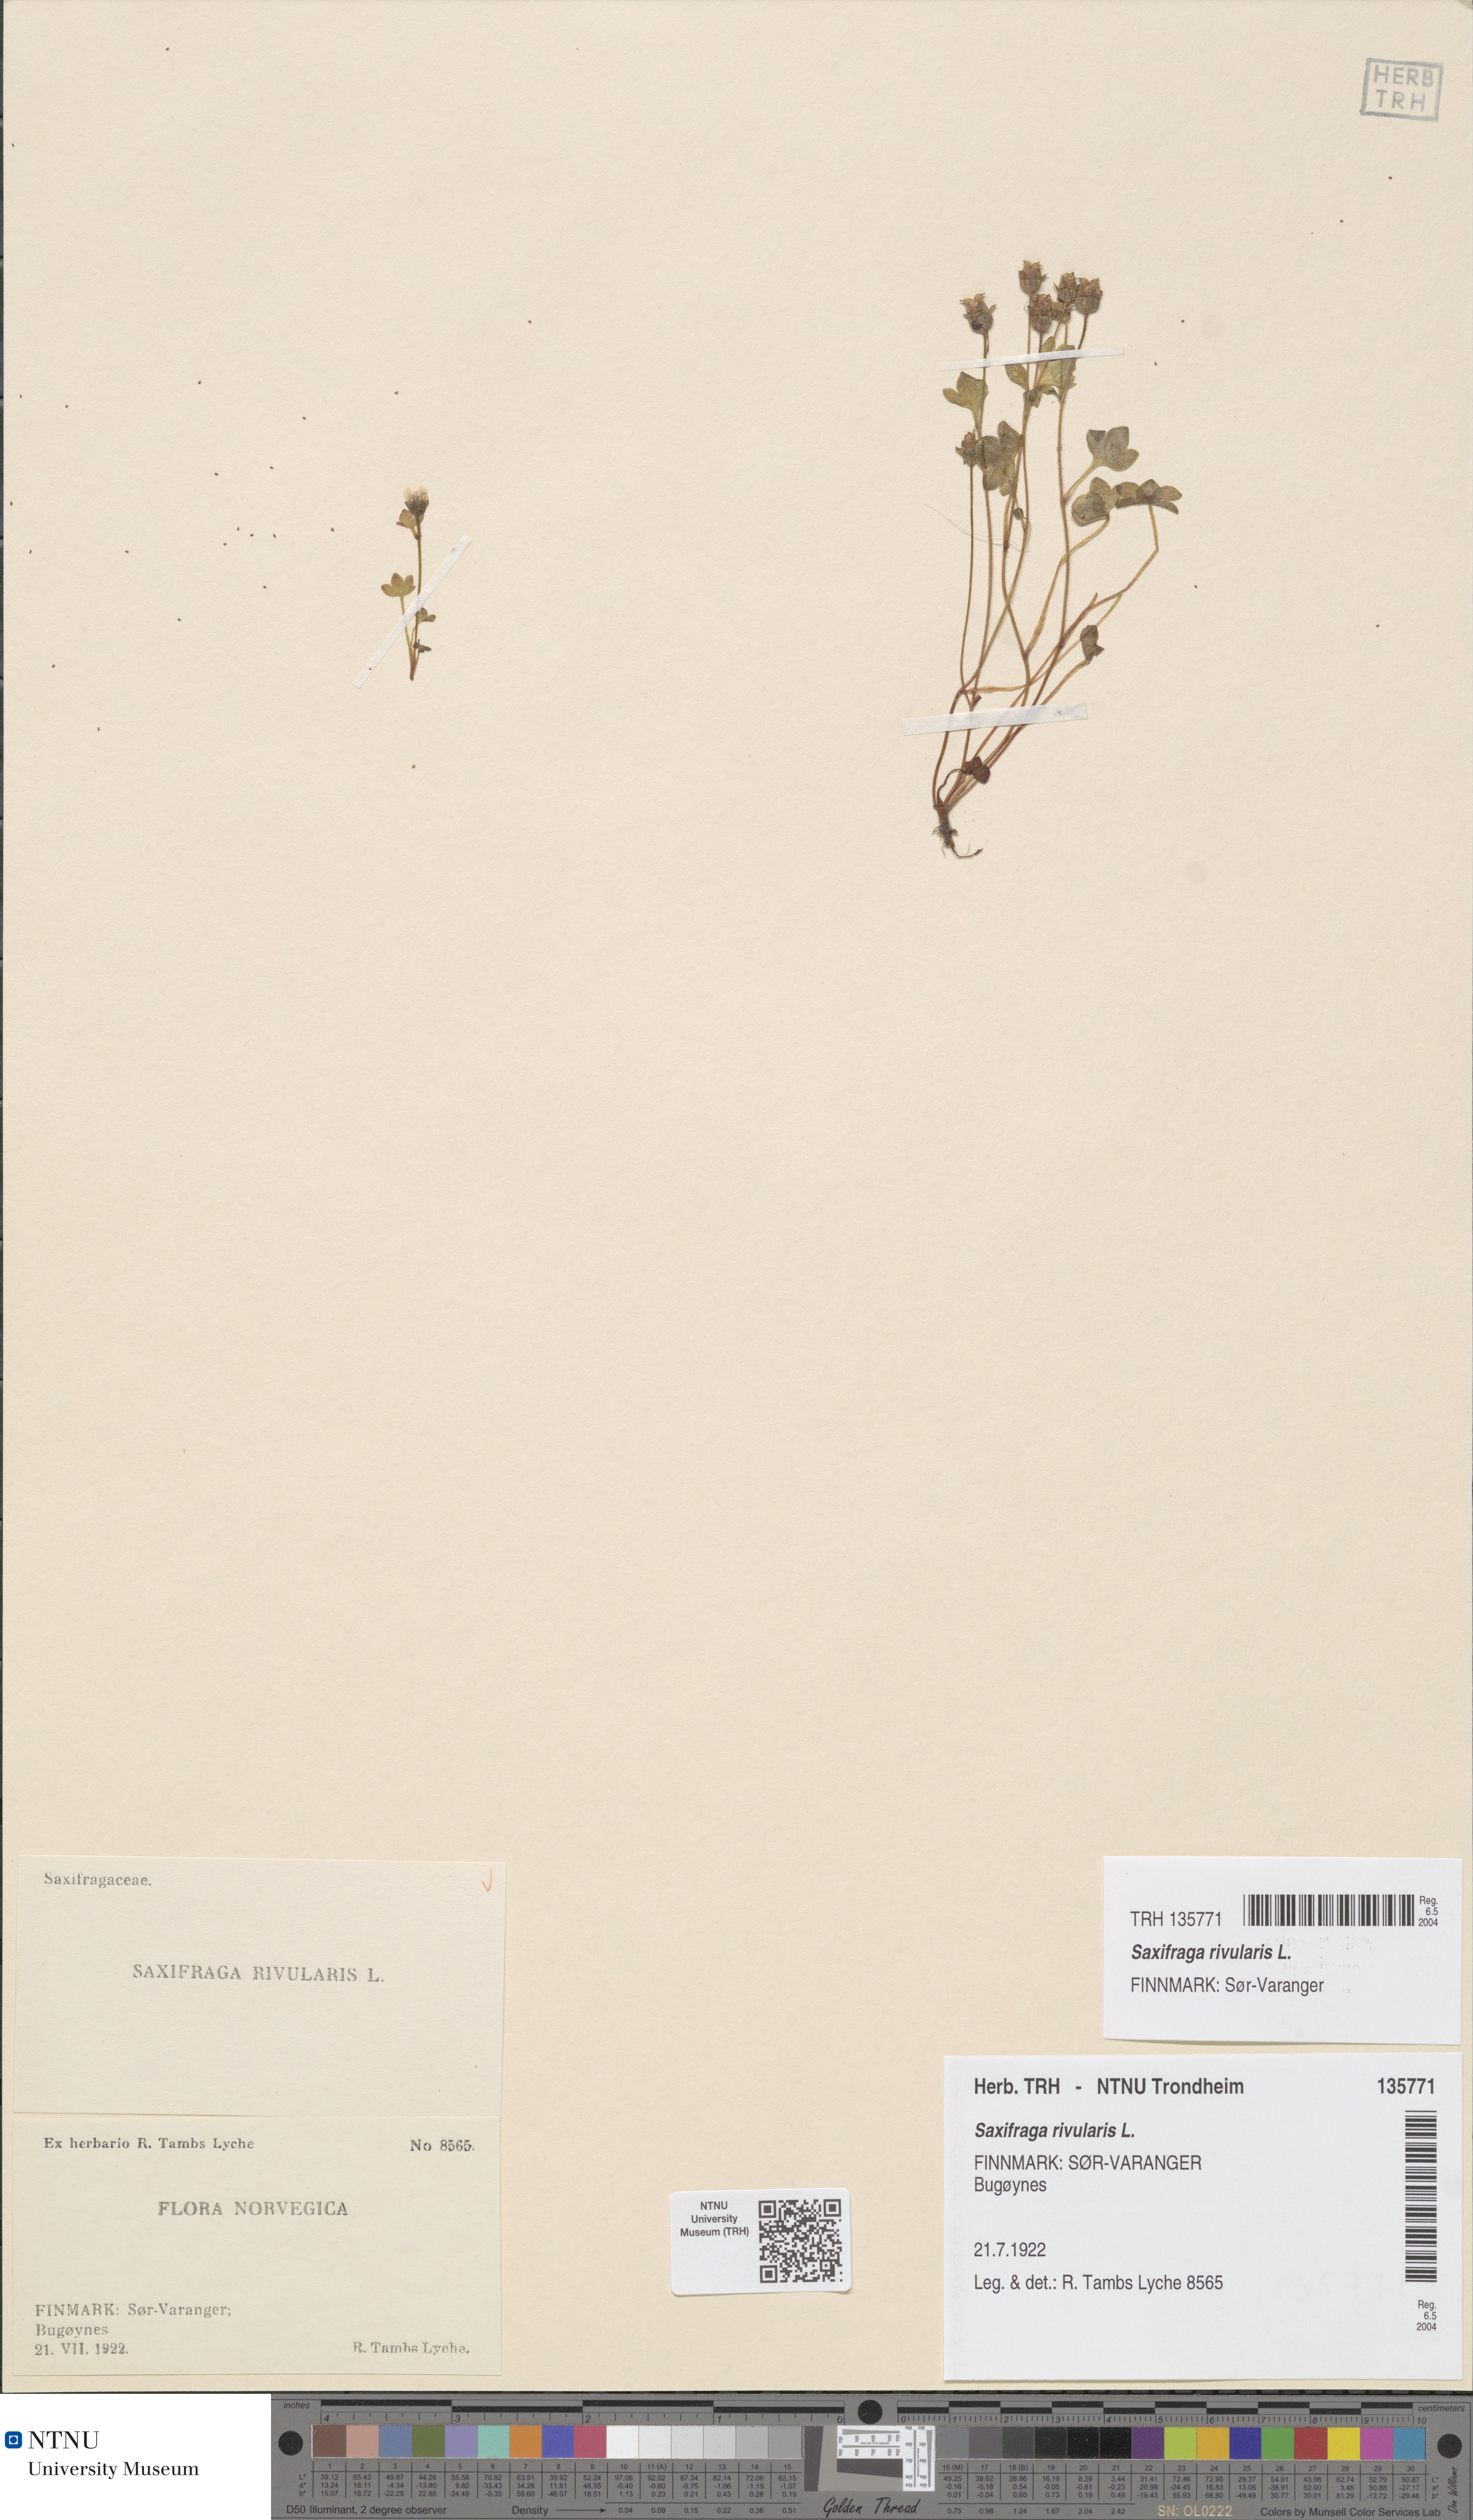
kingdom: Plantae
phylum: Tracheophyta
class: Magnoliopsida
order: Saxifragales
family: Saxifragaceae
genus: Saxifraga
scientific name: Saxifraga rivularis
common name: Highland saxifrage
